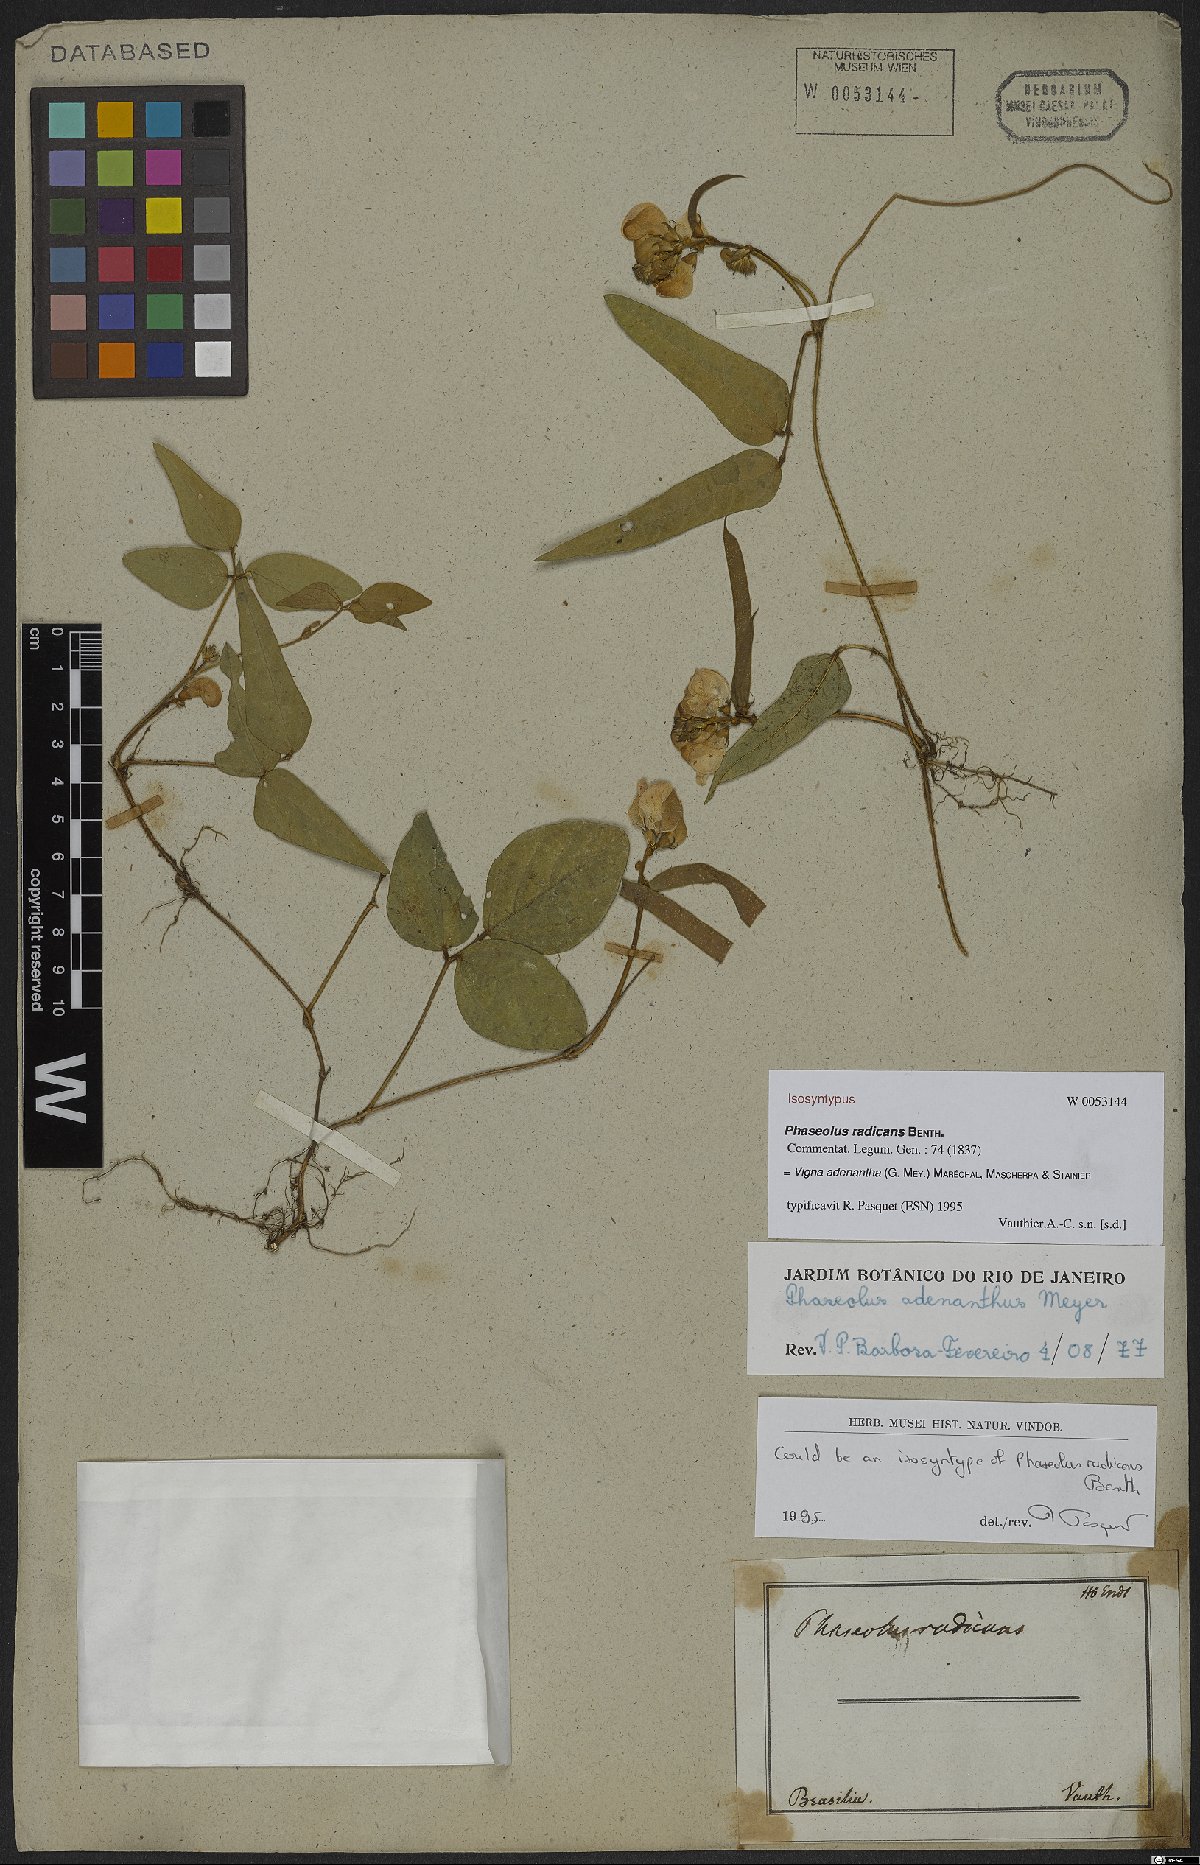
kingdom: Plantae
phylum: Tracheophyta
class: Magnoliopsida
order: Fabales
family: Fabaceae
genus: Leptospron
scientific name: Leptospron adenanthum
